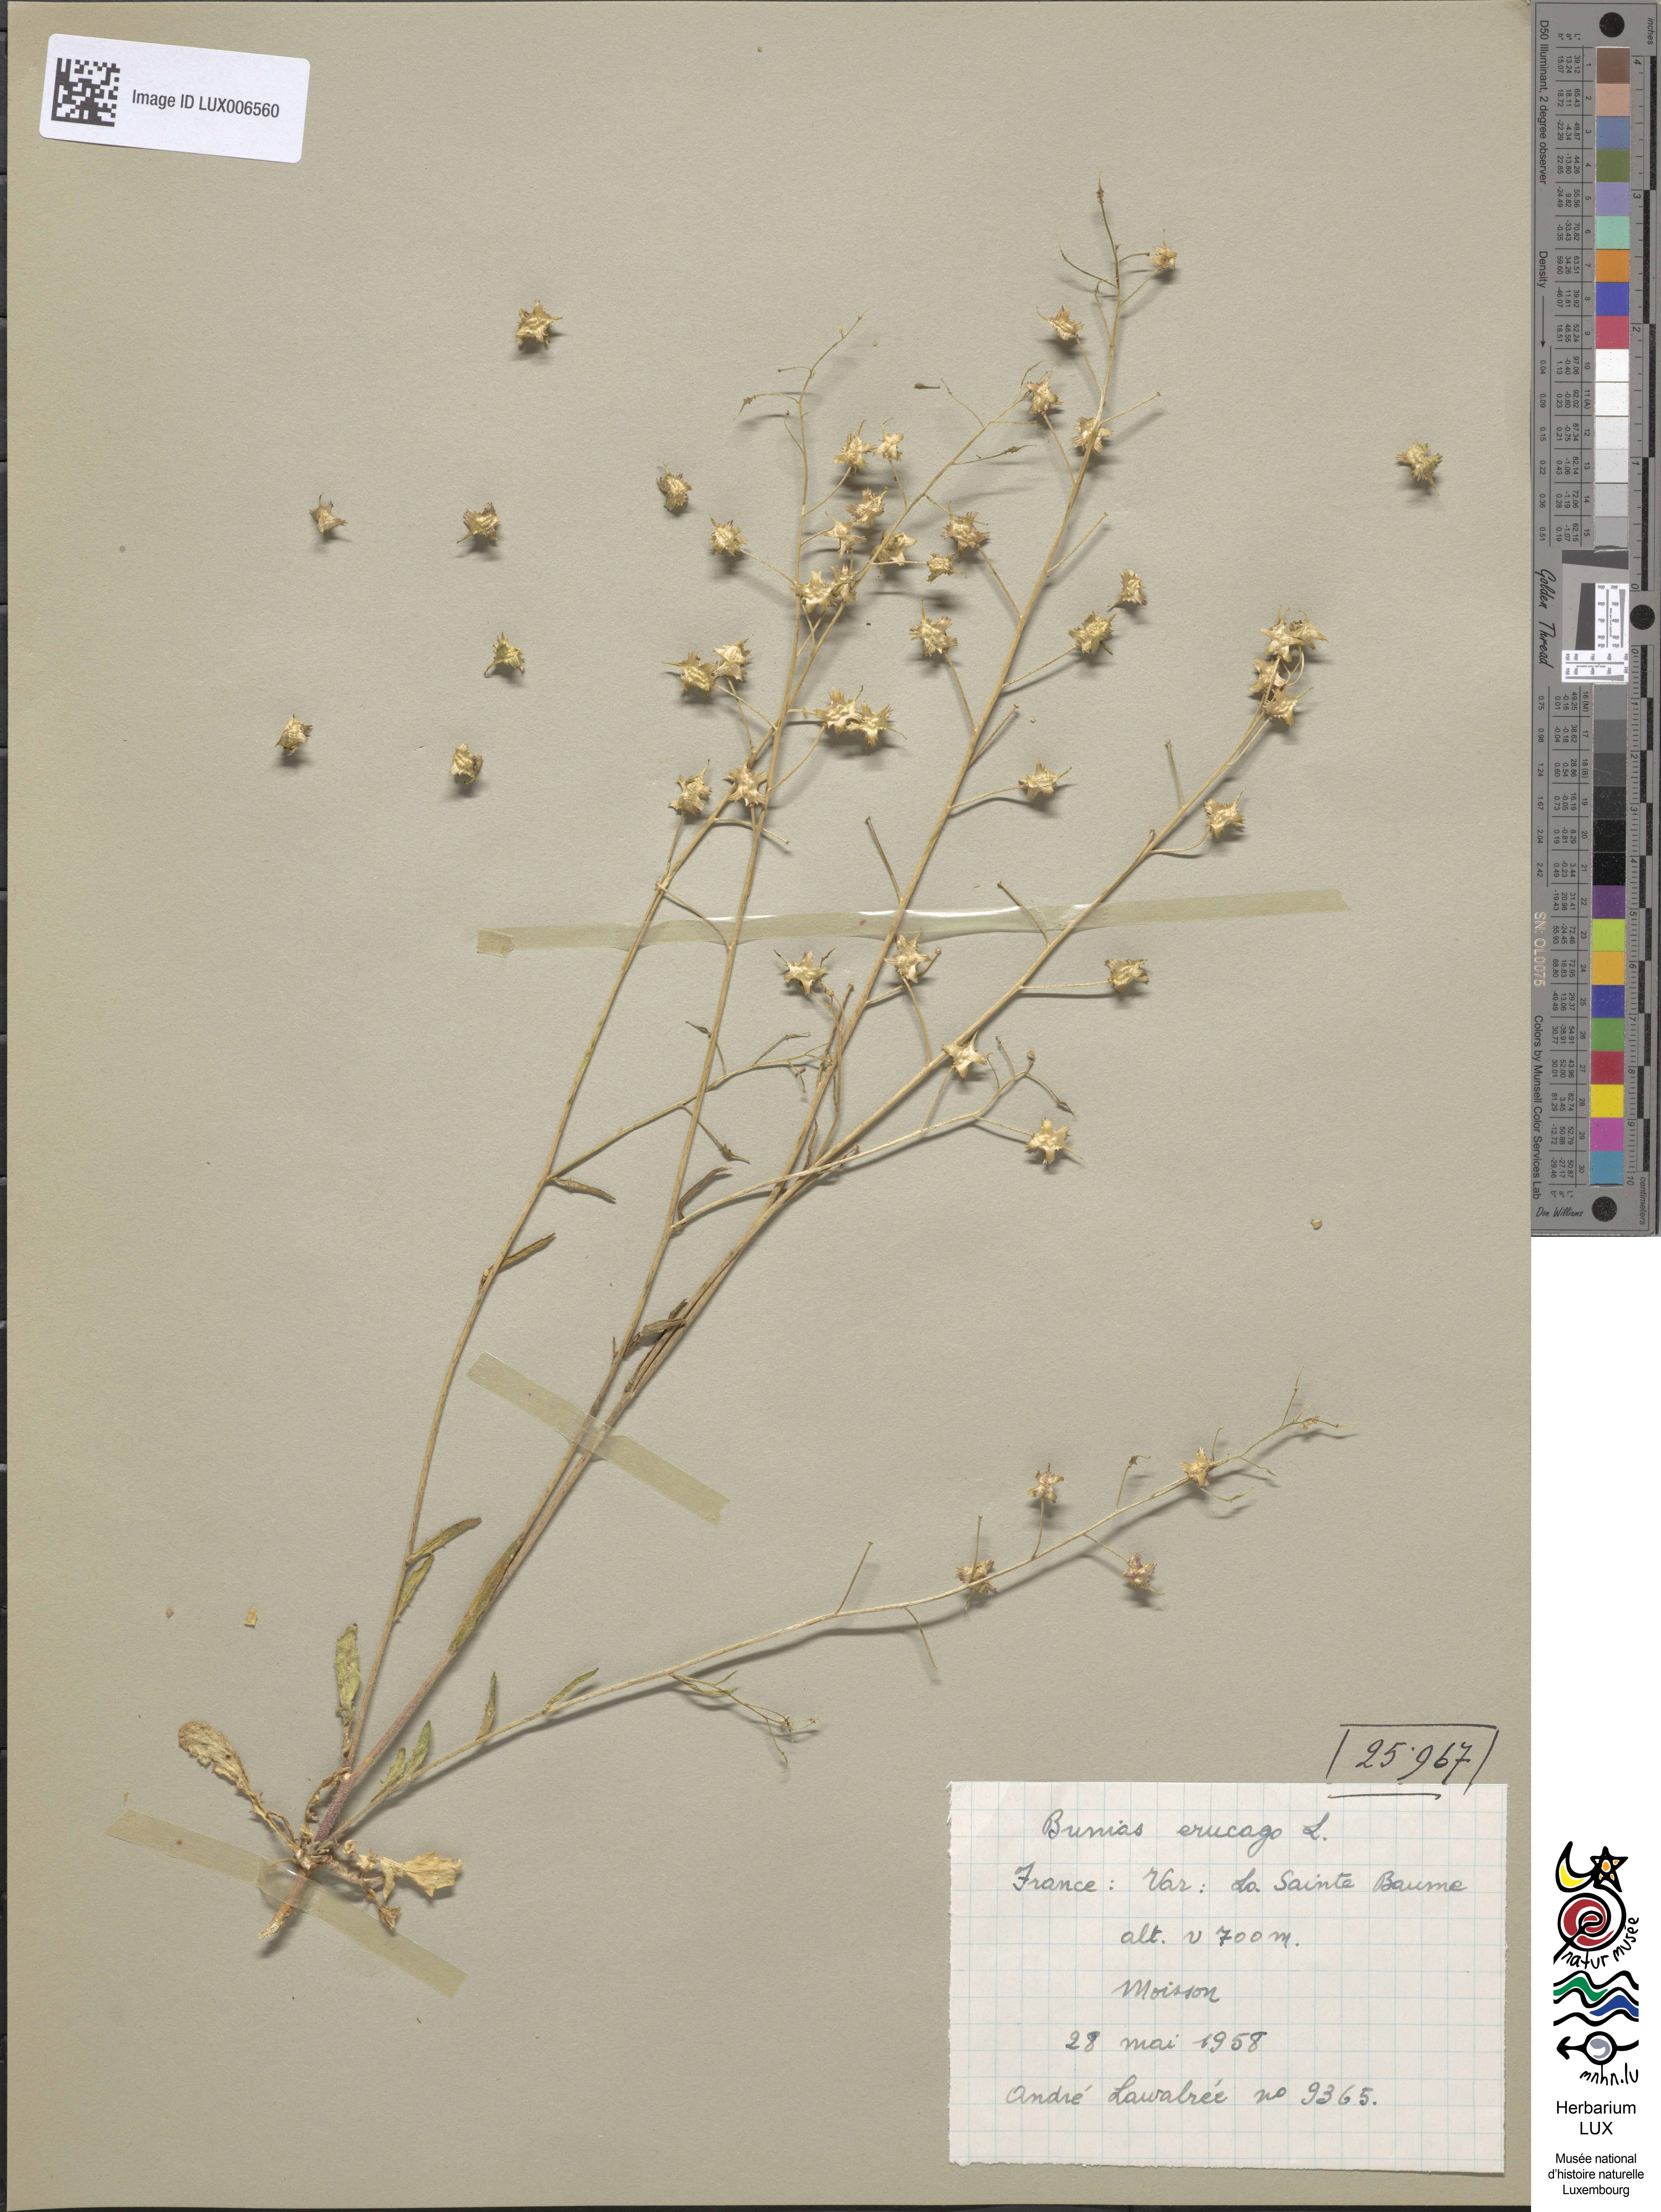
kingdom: Plantae
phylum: Tracheophyta
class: Magnoliopsida
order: Brassicales
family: Brassicaceae
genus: Bunias
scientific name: Bunias erucago
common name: Southern warty-cabbage
